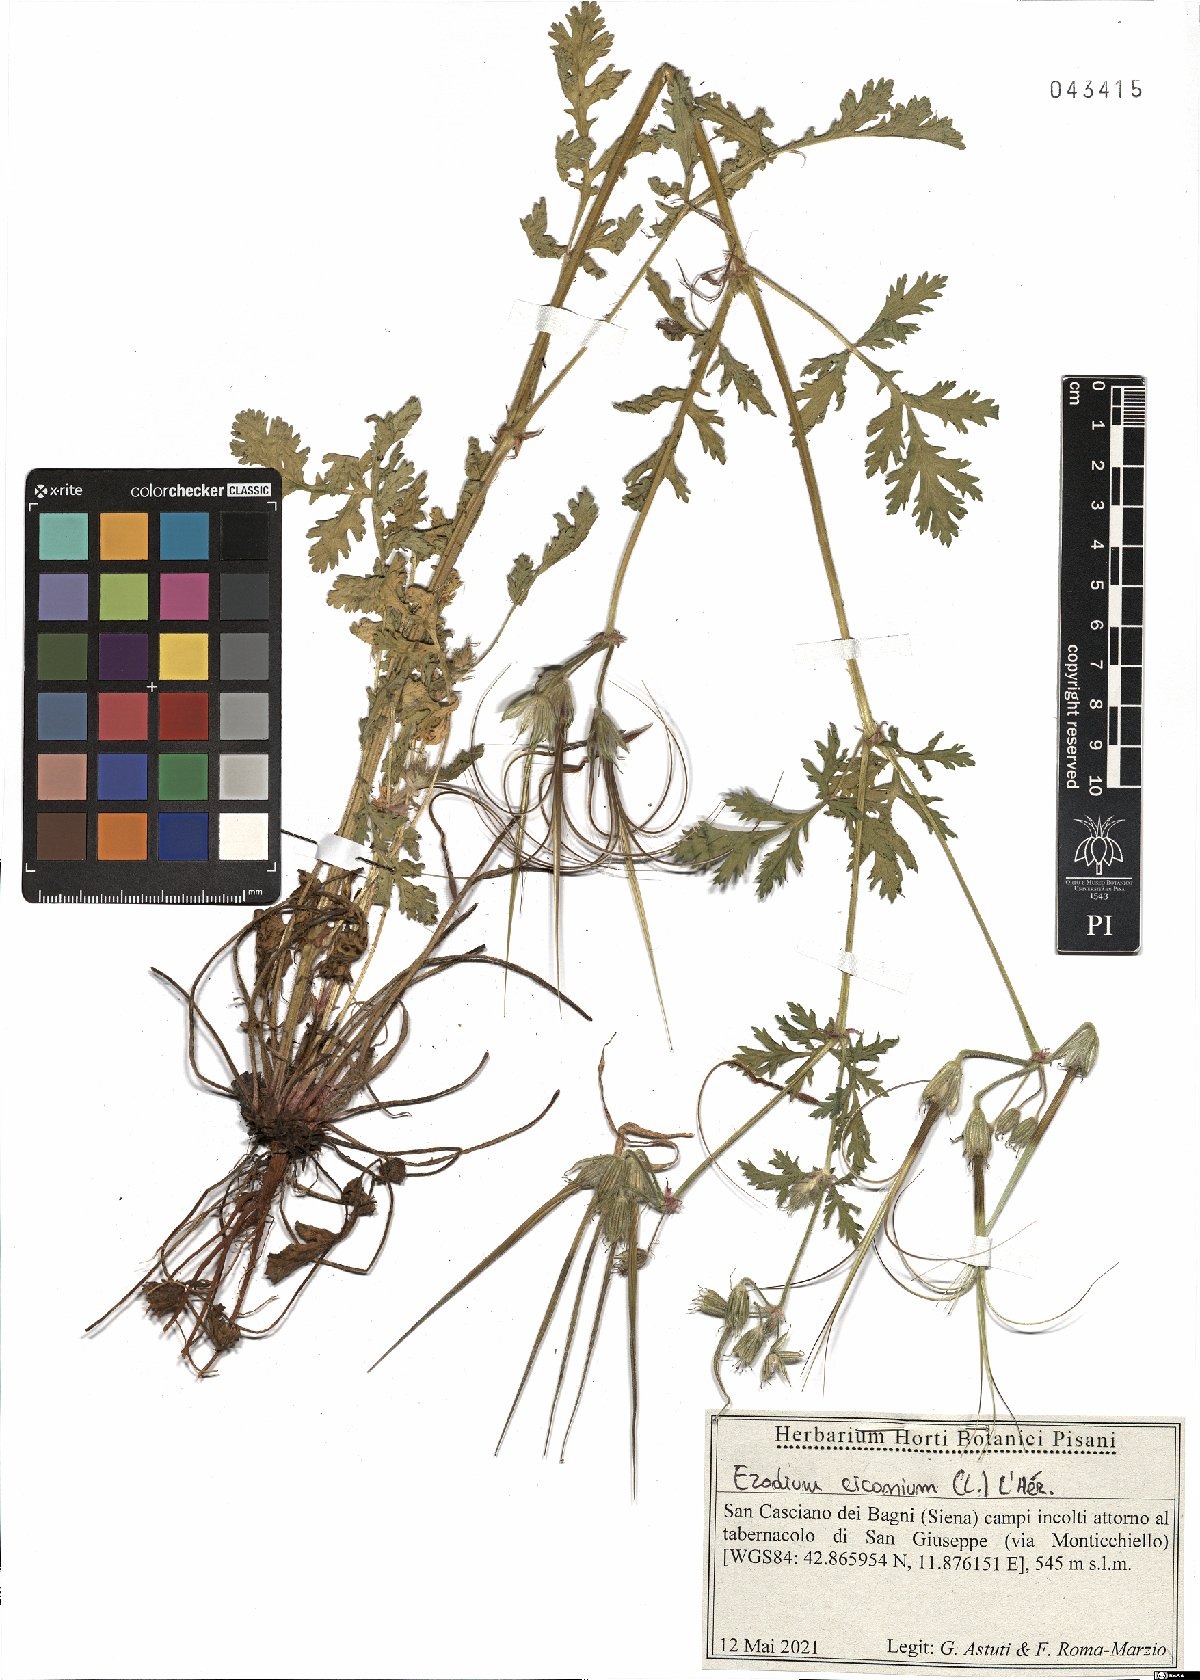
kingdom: Plantae
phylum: Tracheophyta
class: Magnoliopsida
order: Geraniales
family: Geraniaceae
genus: Erodium
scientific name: Erodium ciconium
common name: Common stork's bill
